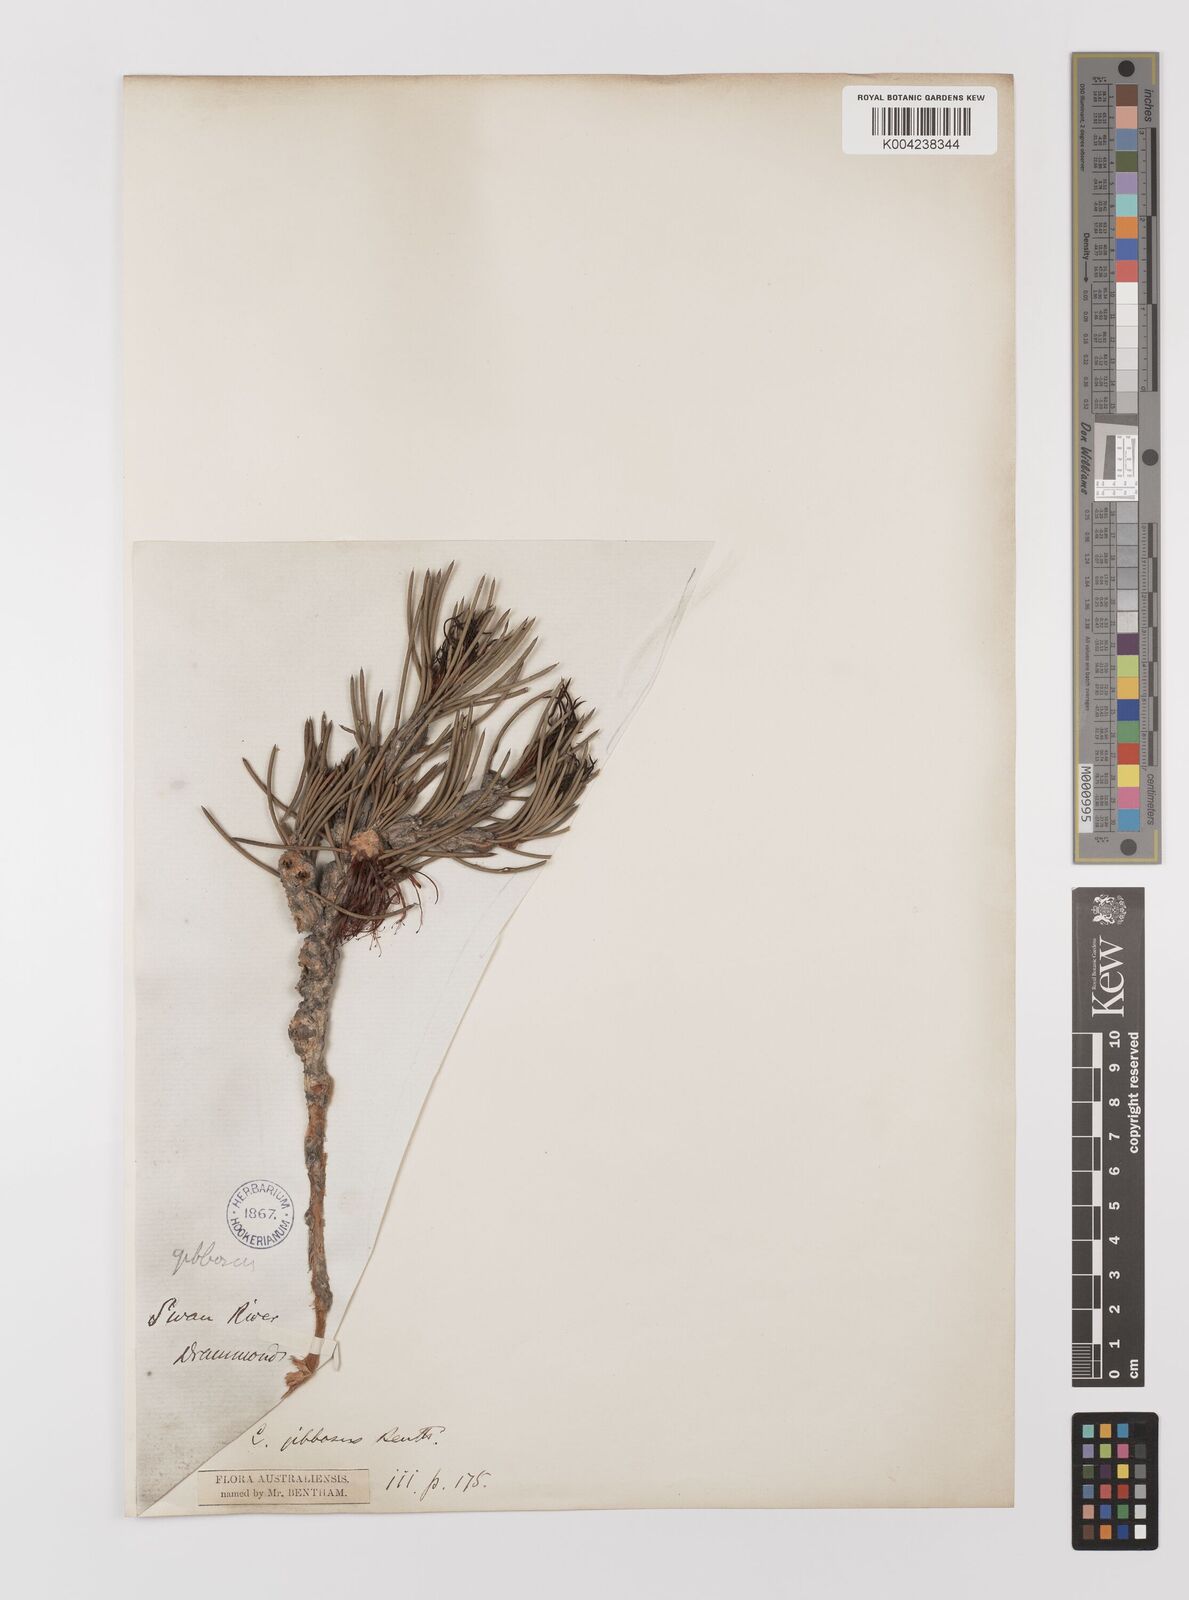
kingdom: Plantae
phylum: Tracheophyta
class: Magnoliopsida
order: Myrtales
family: Myrtaceae
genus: Melaleuca
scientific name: Melaleuca protumida
